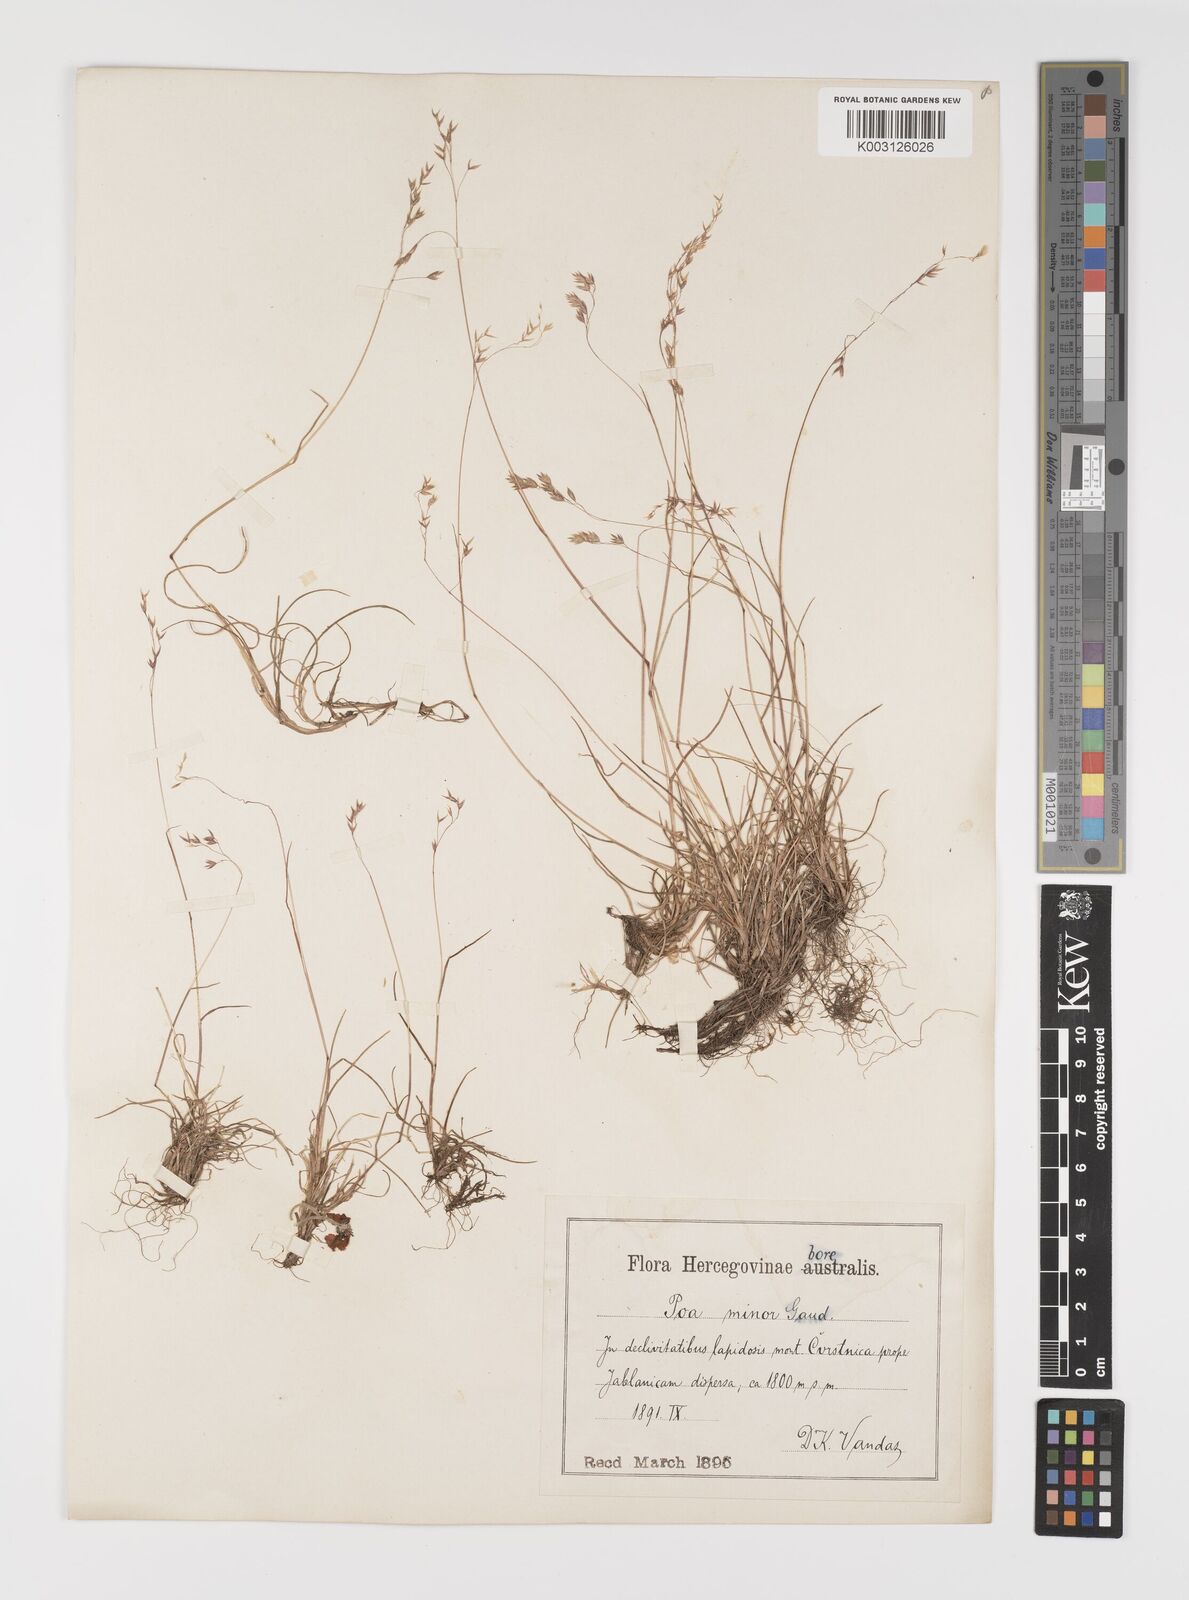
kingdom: Plantae
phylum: Tracheophyta
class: Liliopsida
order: Poales
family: Poaceae
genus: Poa
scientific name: Poa minor
